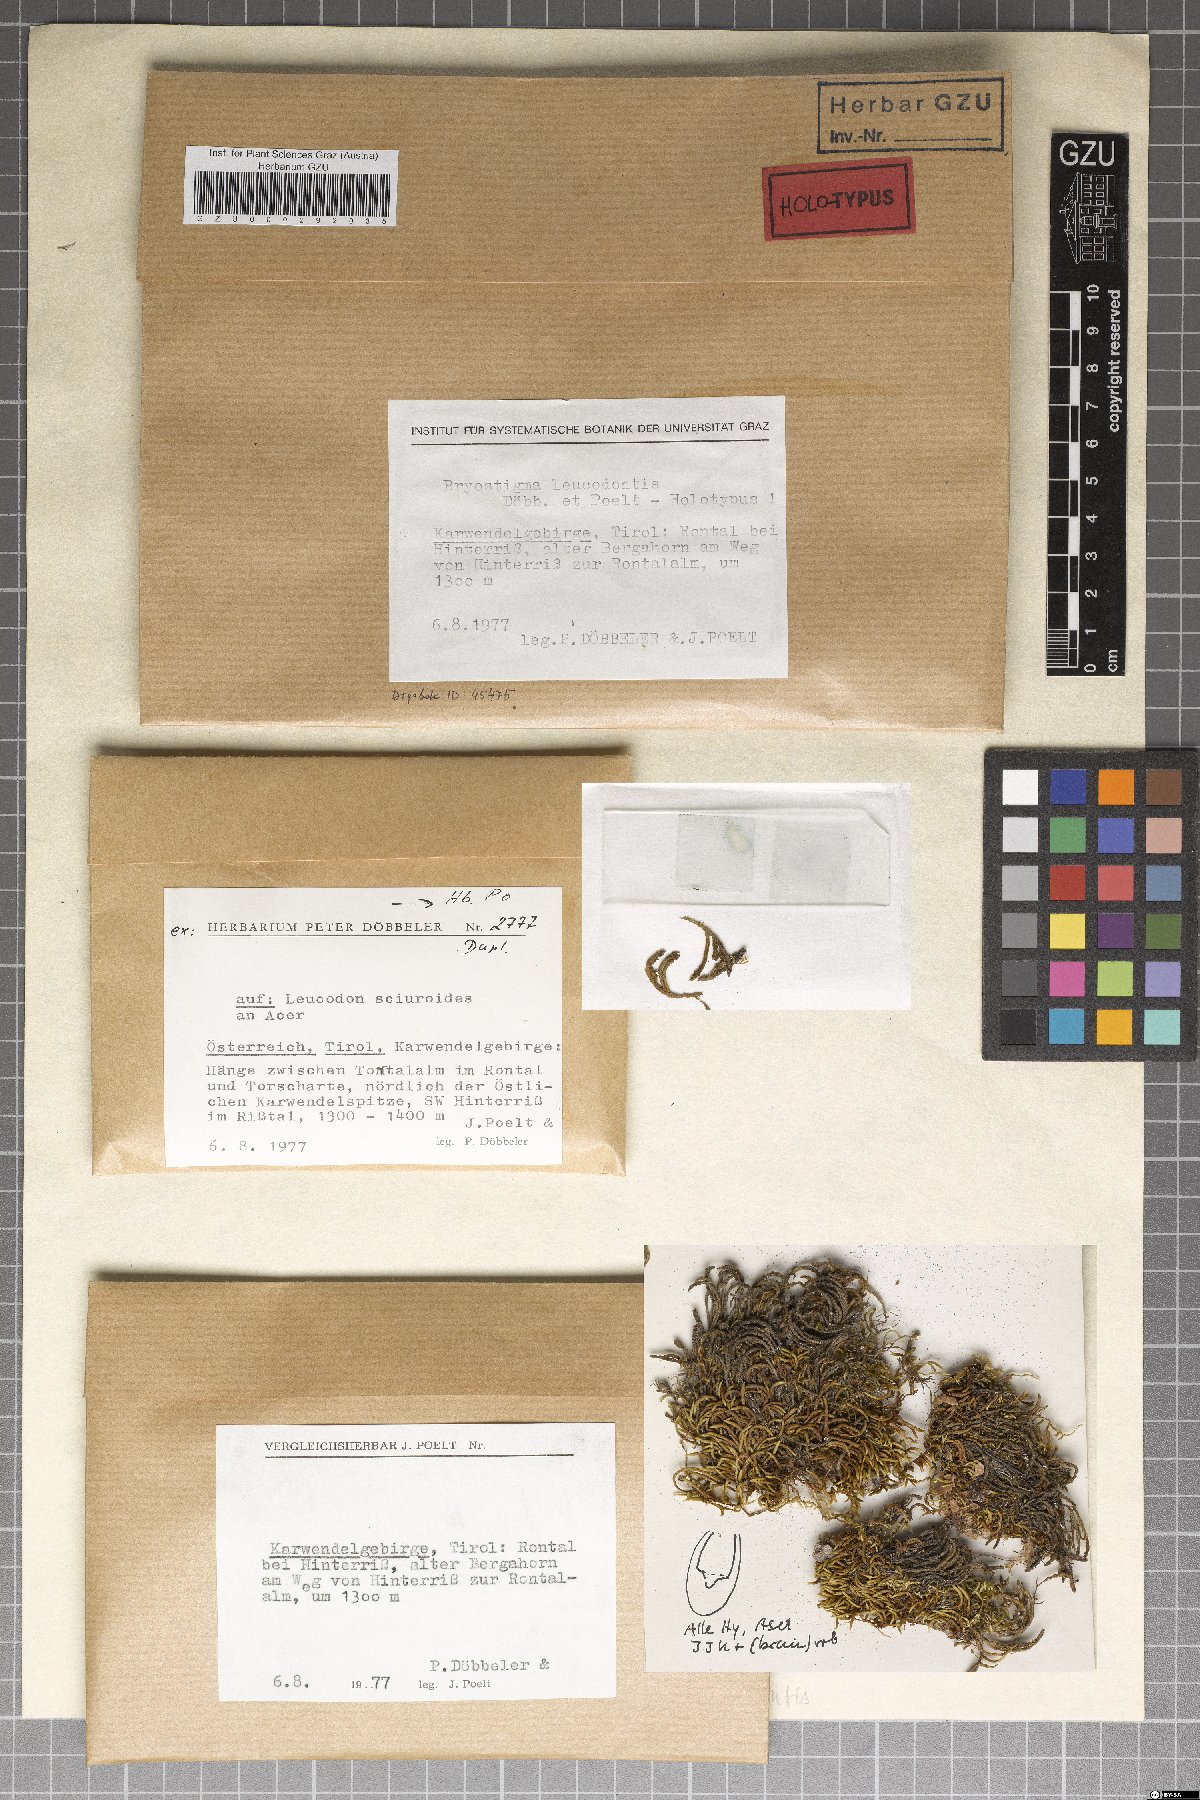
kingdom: Fungi
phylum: Ascomycota
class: Arthoniomycetes
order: Arthoniales
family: Arthoniaceae
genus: Bryostigma
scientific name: Bryostigma muscigenum
